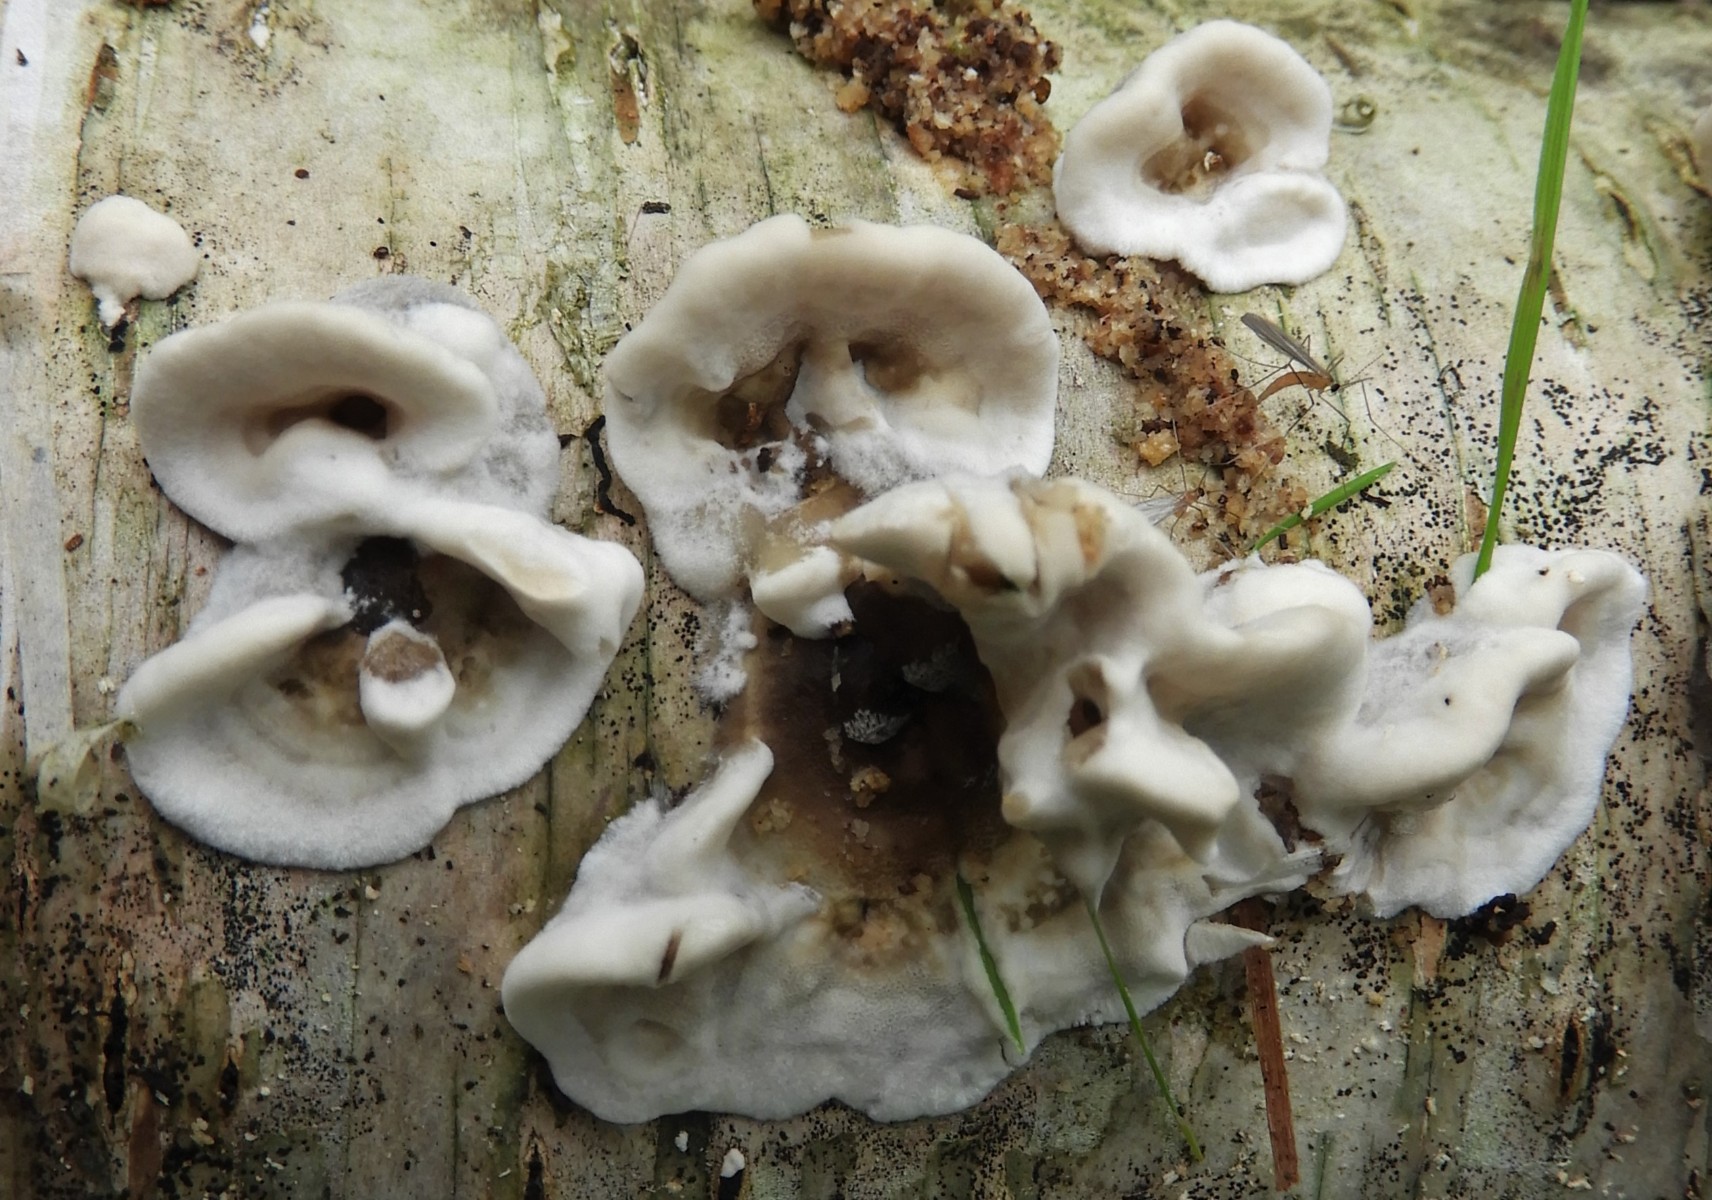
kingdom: Fungi
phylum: Basidiomycota
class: Agaricomycetes
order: Polyporales
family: Phanerochaetaceae
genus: Bjerkandera
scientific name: Bjerkandera adusta
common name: sveden sodporesvamp
